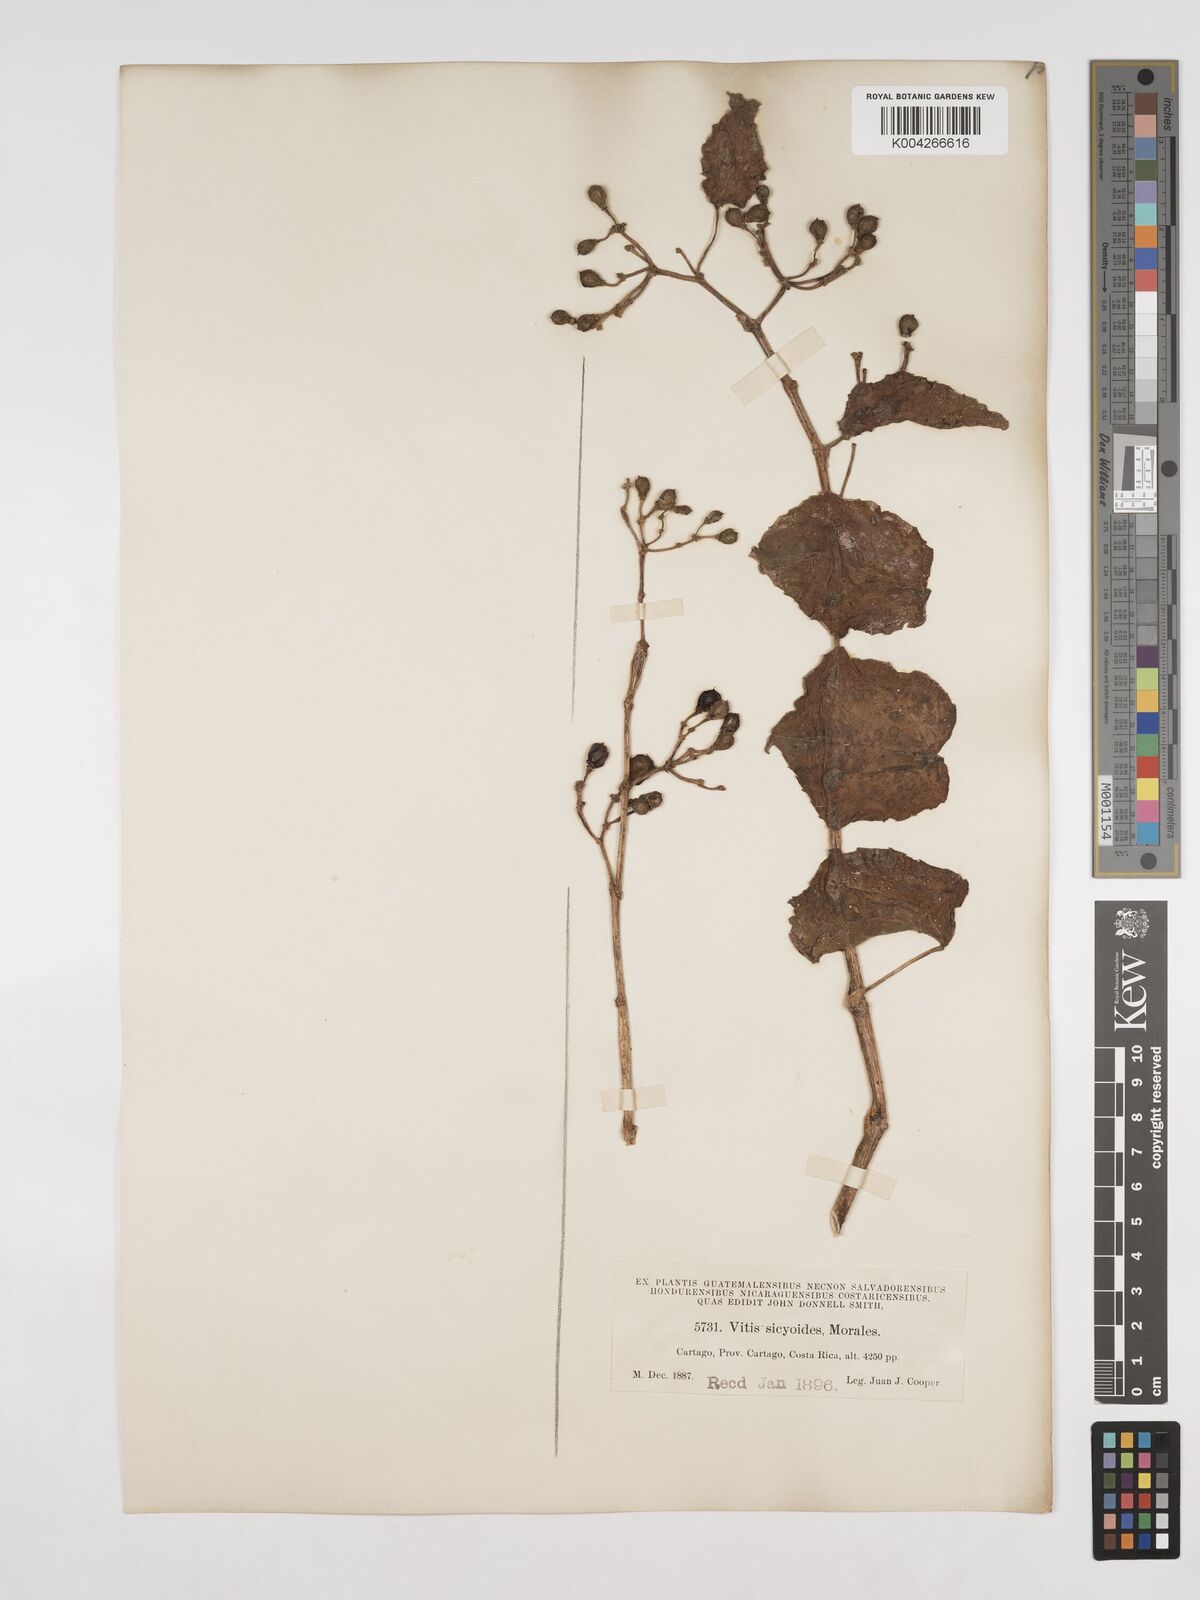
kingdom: Plantae
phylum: Tracheophyta
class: Magnoliopsida
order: Vitales
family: Vitaceae
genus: Cissus
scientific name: Cissus
